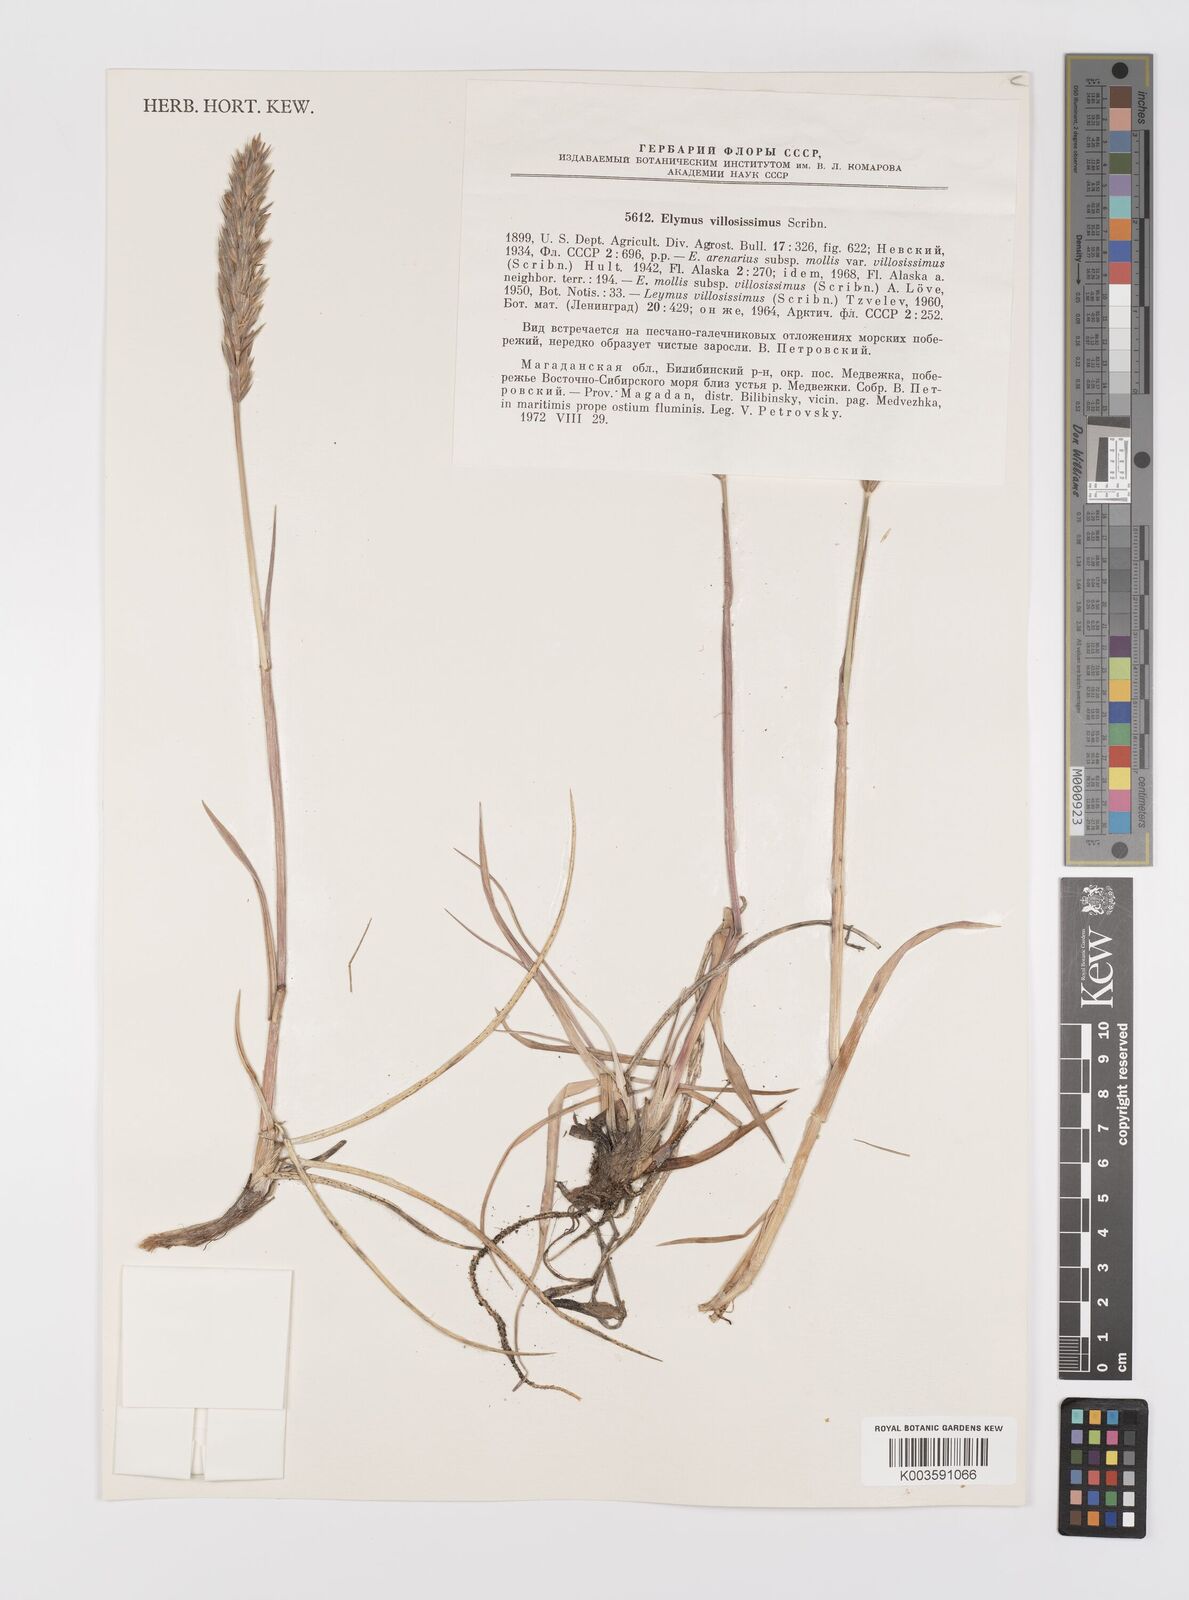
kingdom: Plantae
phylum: Tracheophyta
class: Liliopsida
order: Poales
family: Poaceae
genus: Leymus
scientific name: Leymus villosissimus
